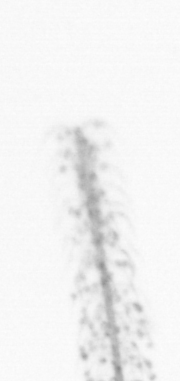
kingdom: Chromista
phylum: Ochrophyta
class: Bacillariophyceae
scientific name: Bacillariophyceae
